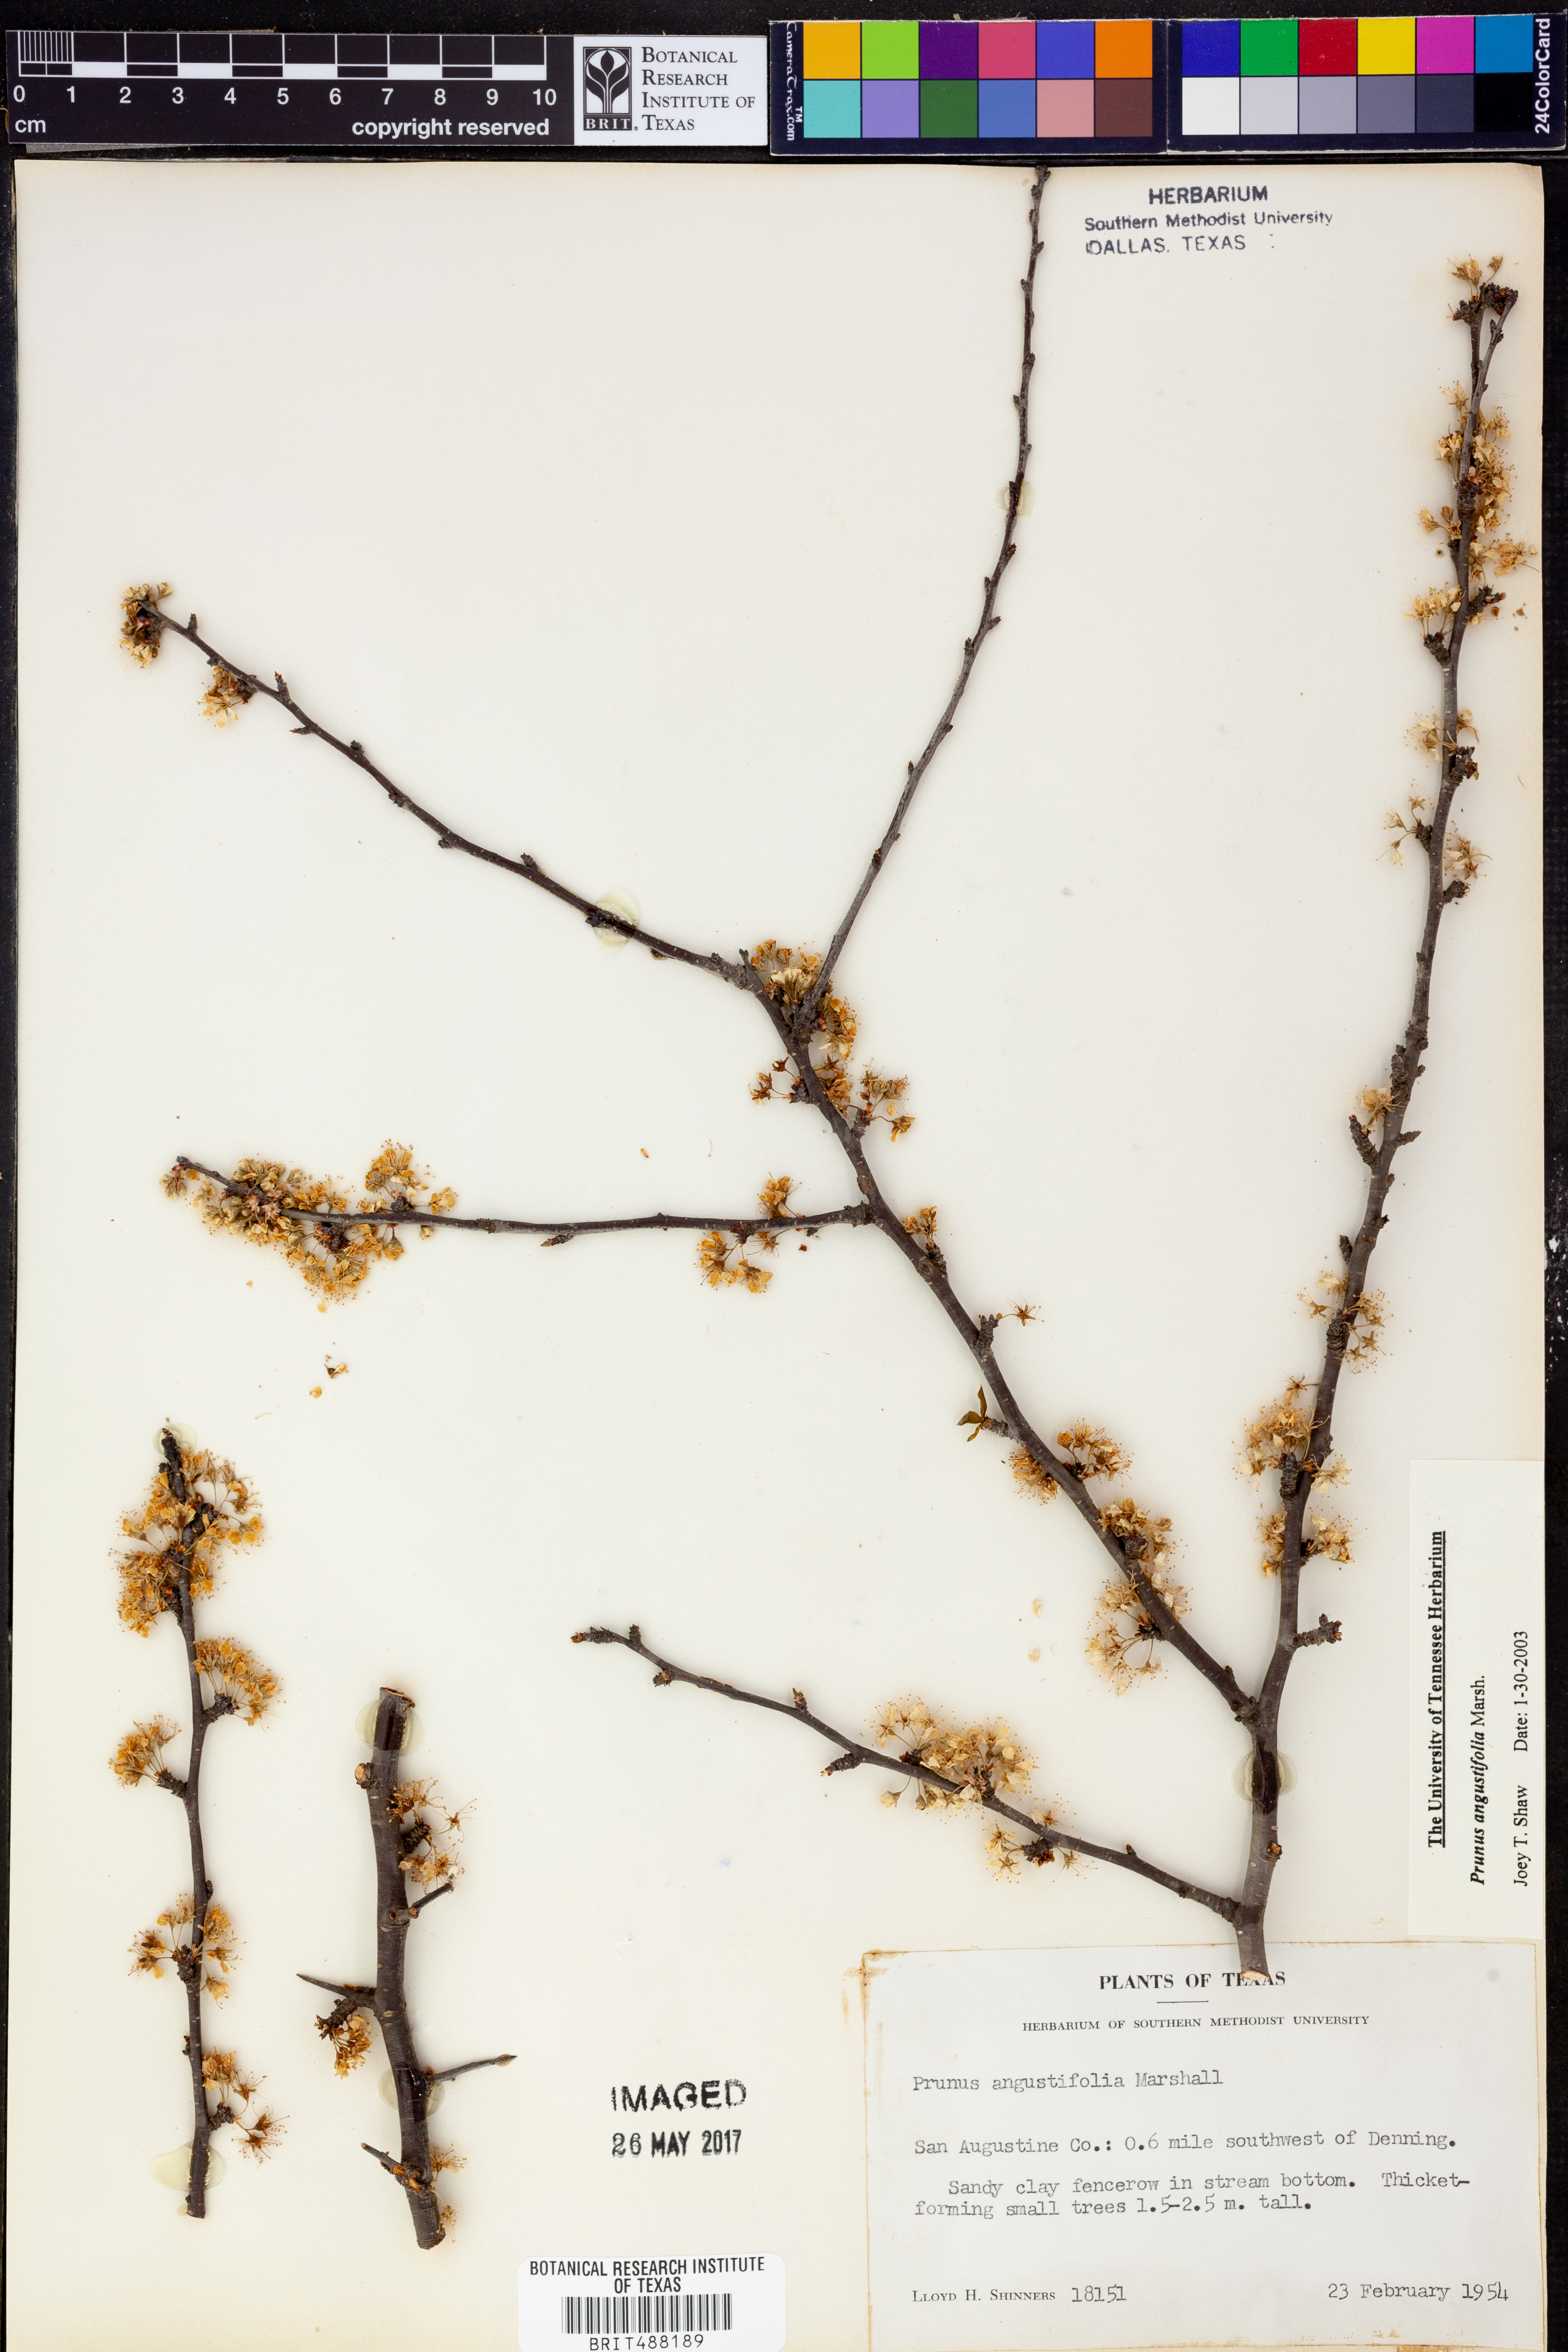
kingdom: Plantae
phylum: Tracheophyta
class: Magnoliopsida
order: Rosales
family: Rosaceae
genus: Prunus
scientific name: Prunus angustifolia
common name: Cherokee plum
